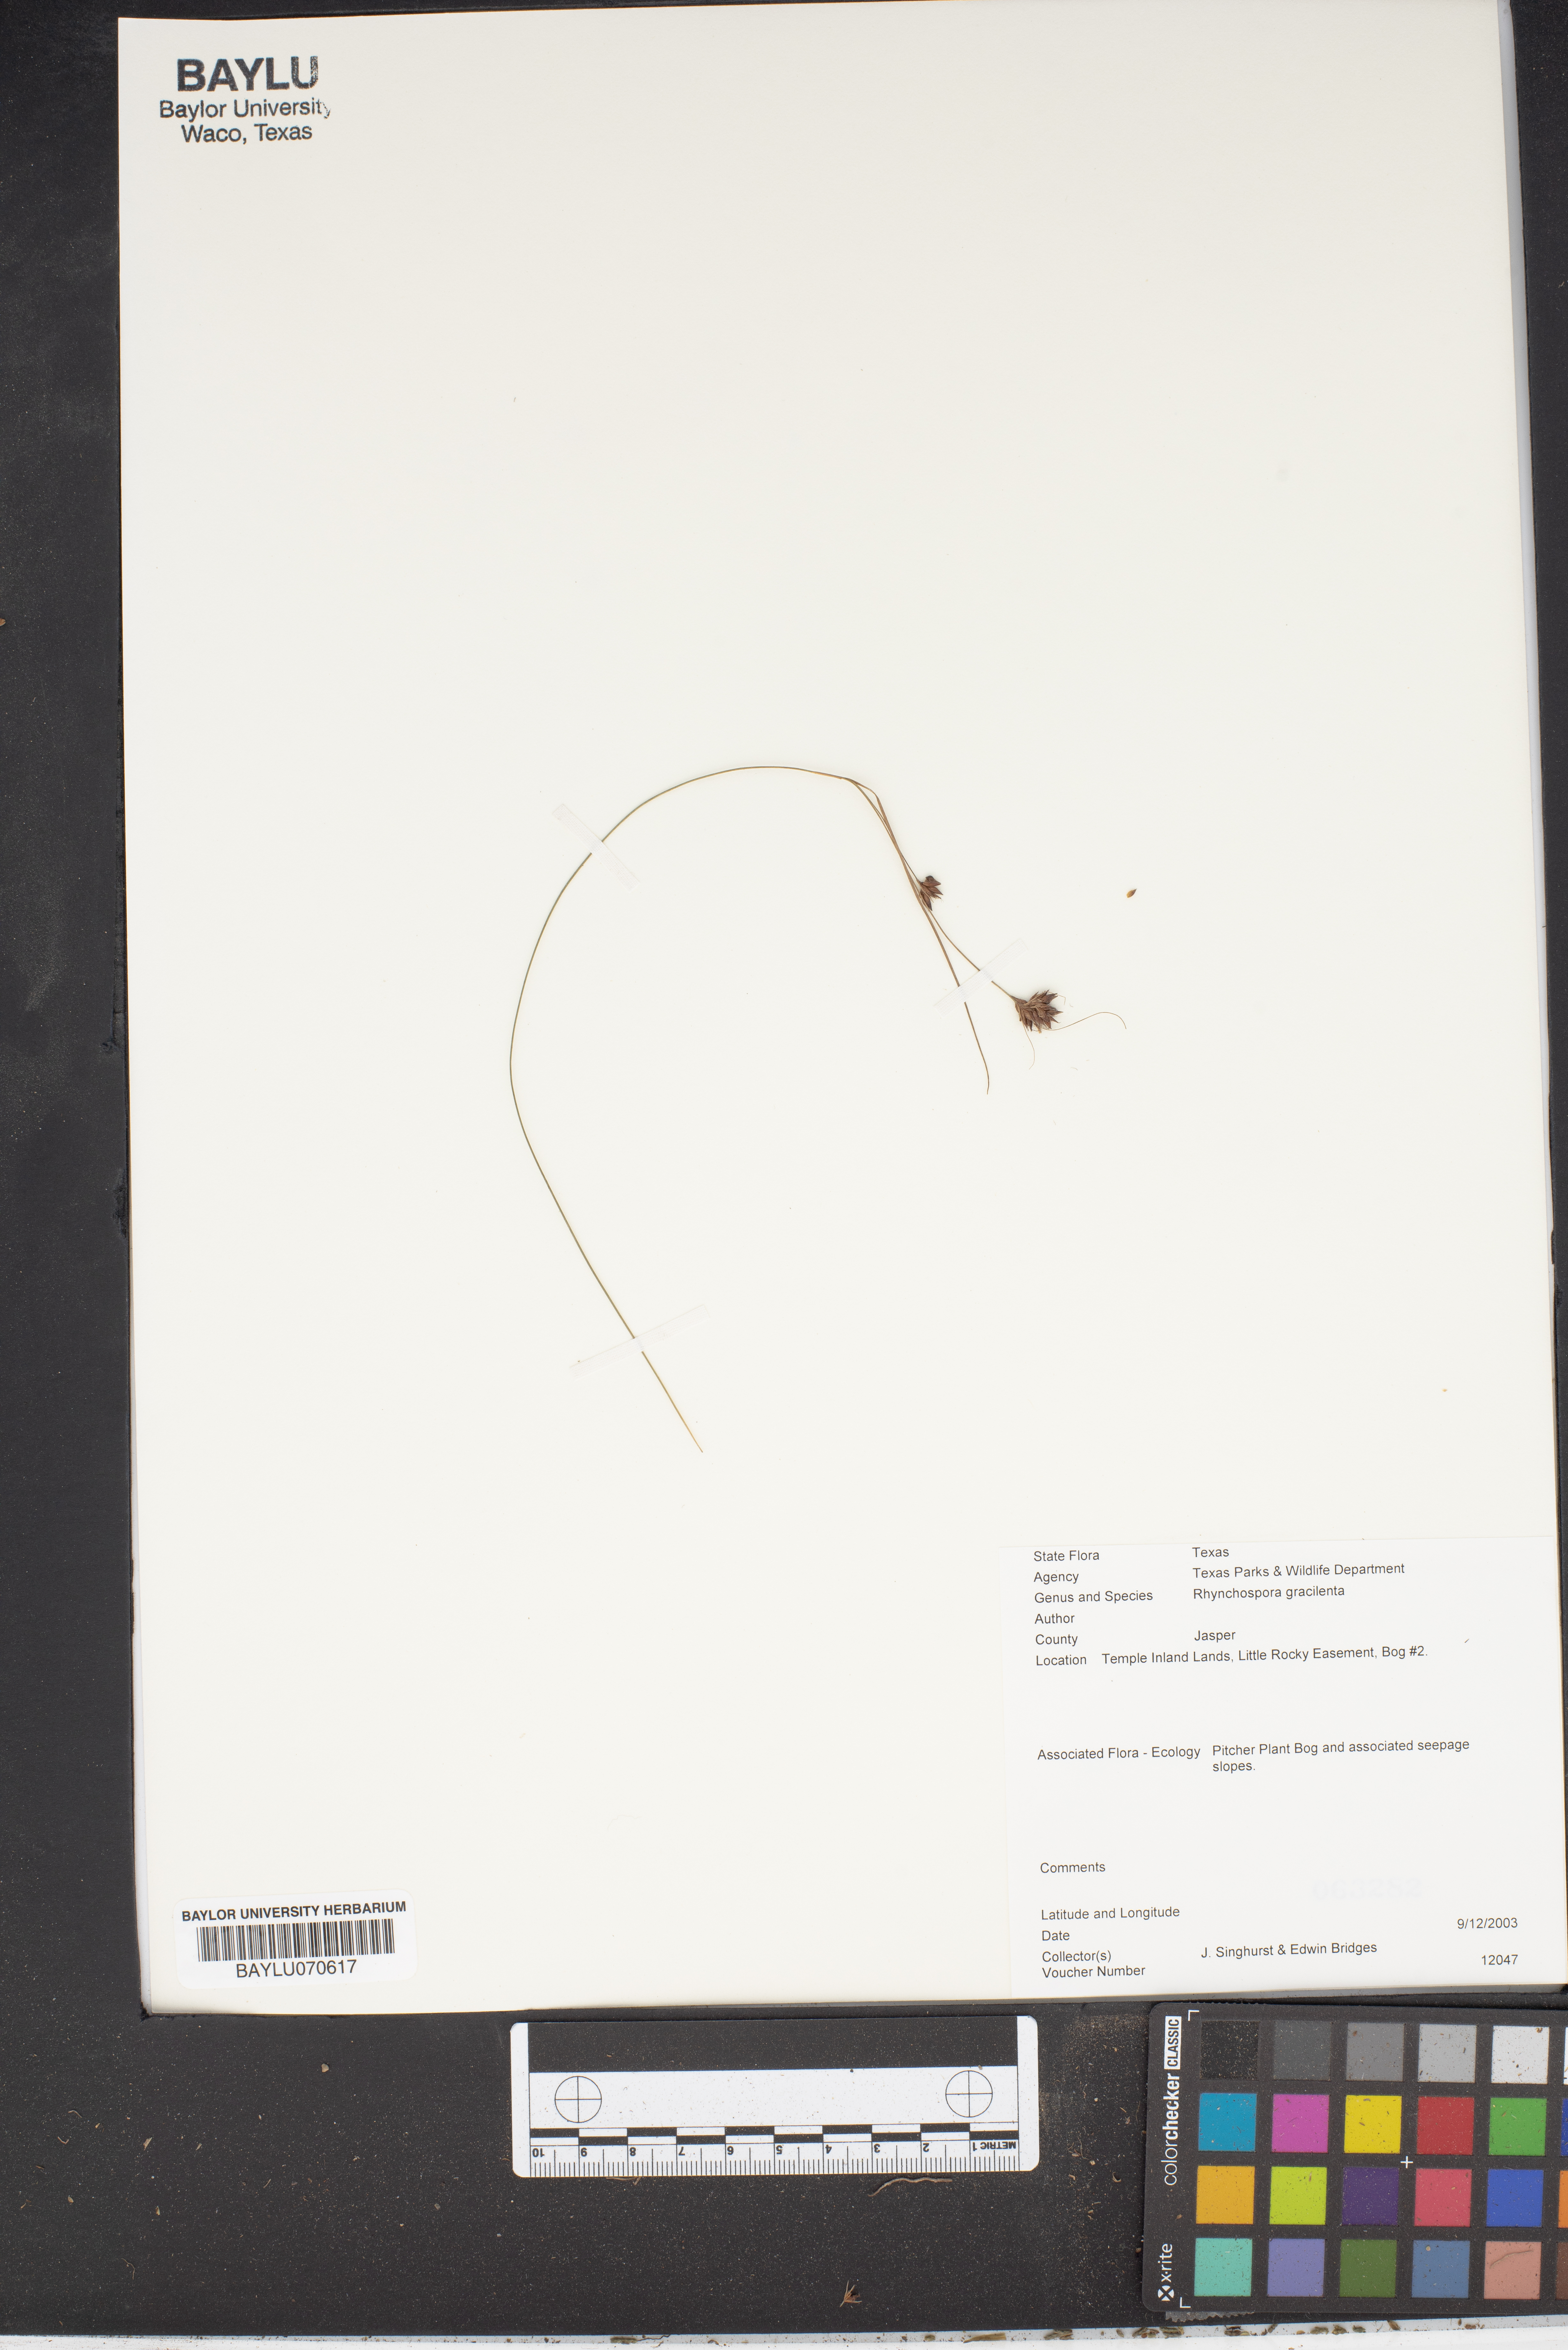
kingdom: Plantae
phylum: Tracheophyta
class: Liliopsida
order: Poales
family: Cyperaceae
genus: Rhynchospora
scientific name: Rhynchospora gracilenta
